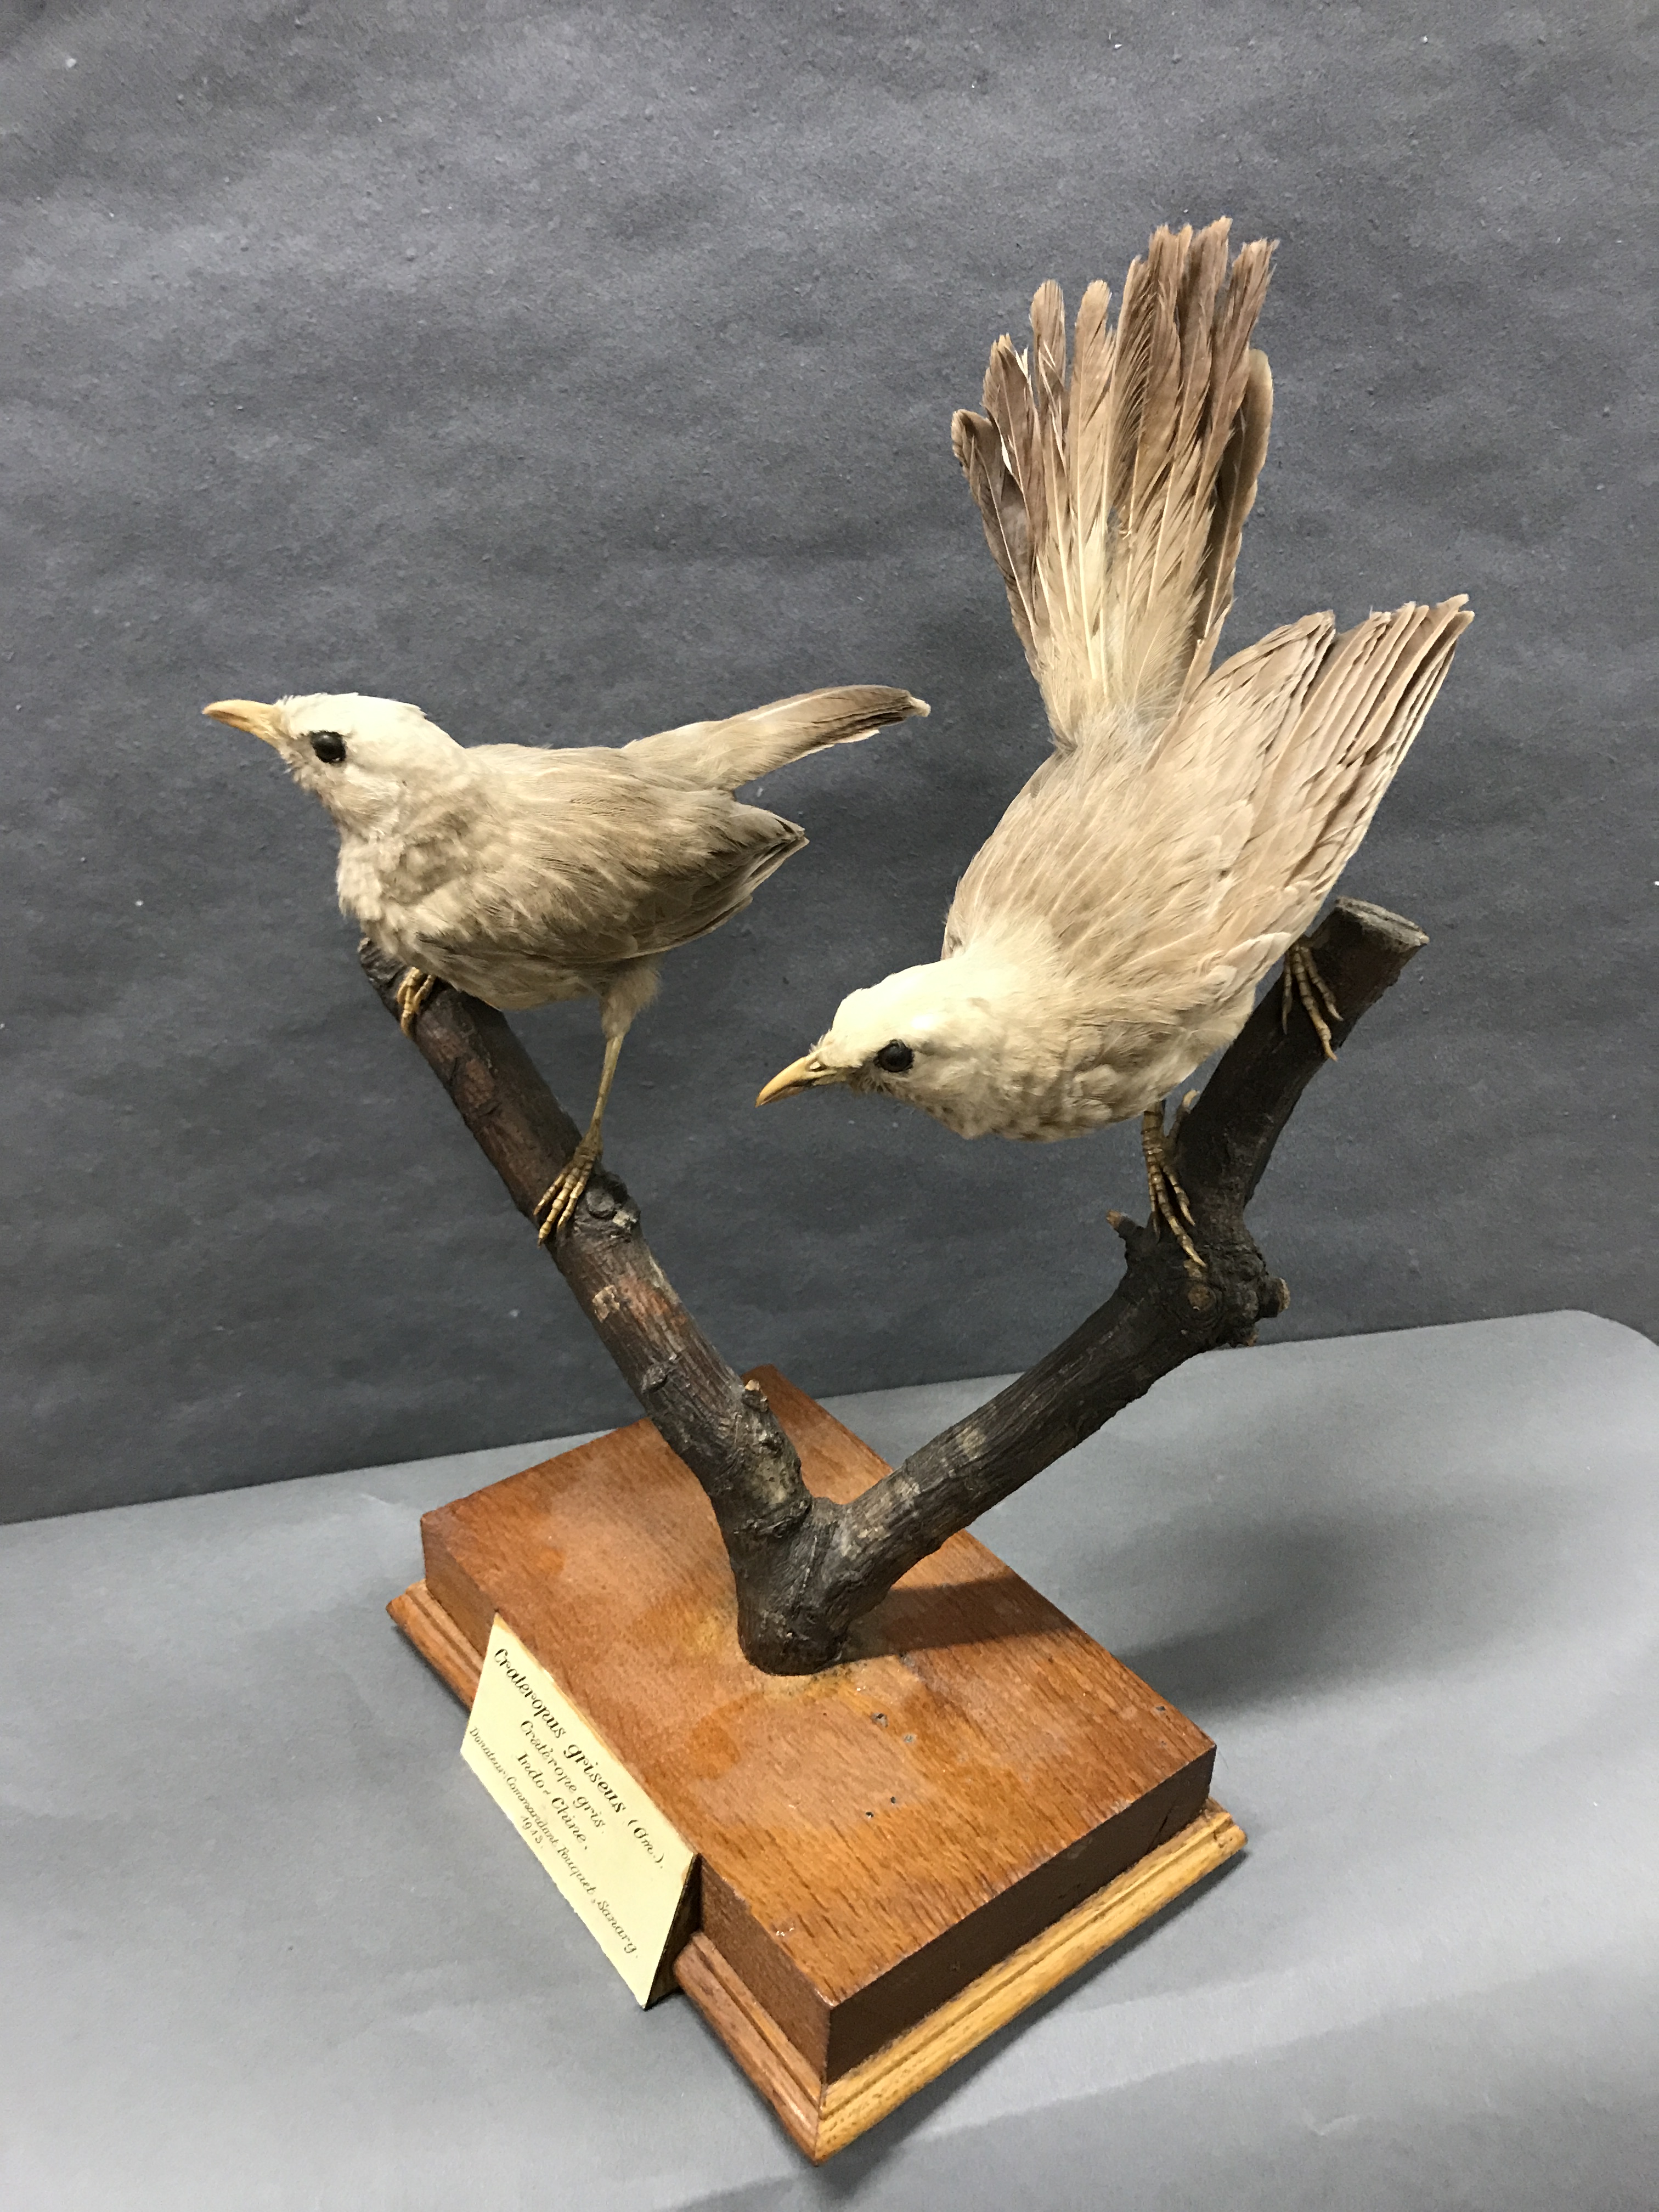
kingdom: Animalia
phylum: Chordata
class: Aves
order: Passeriformes
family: Leiothrichidae
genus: Turdoides
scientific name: Turdoides affinis
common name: Yellow-billed babbler
